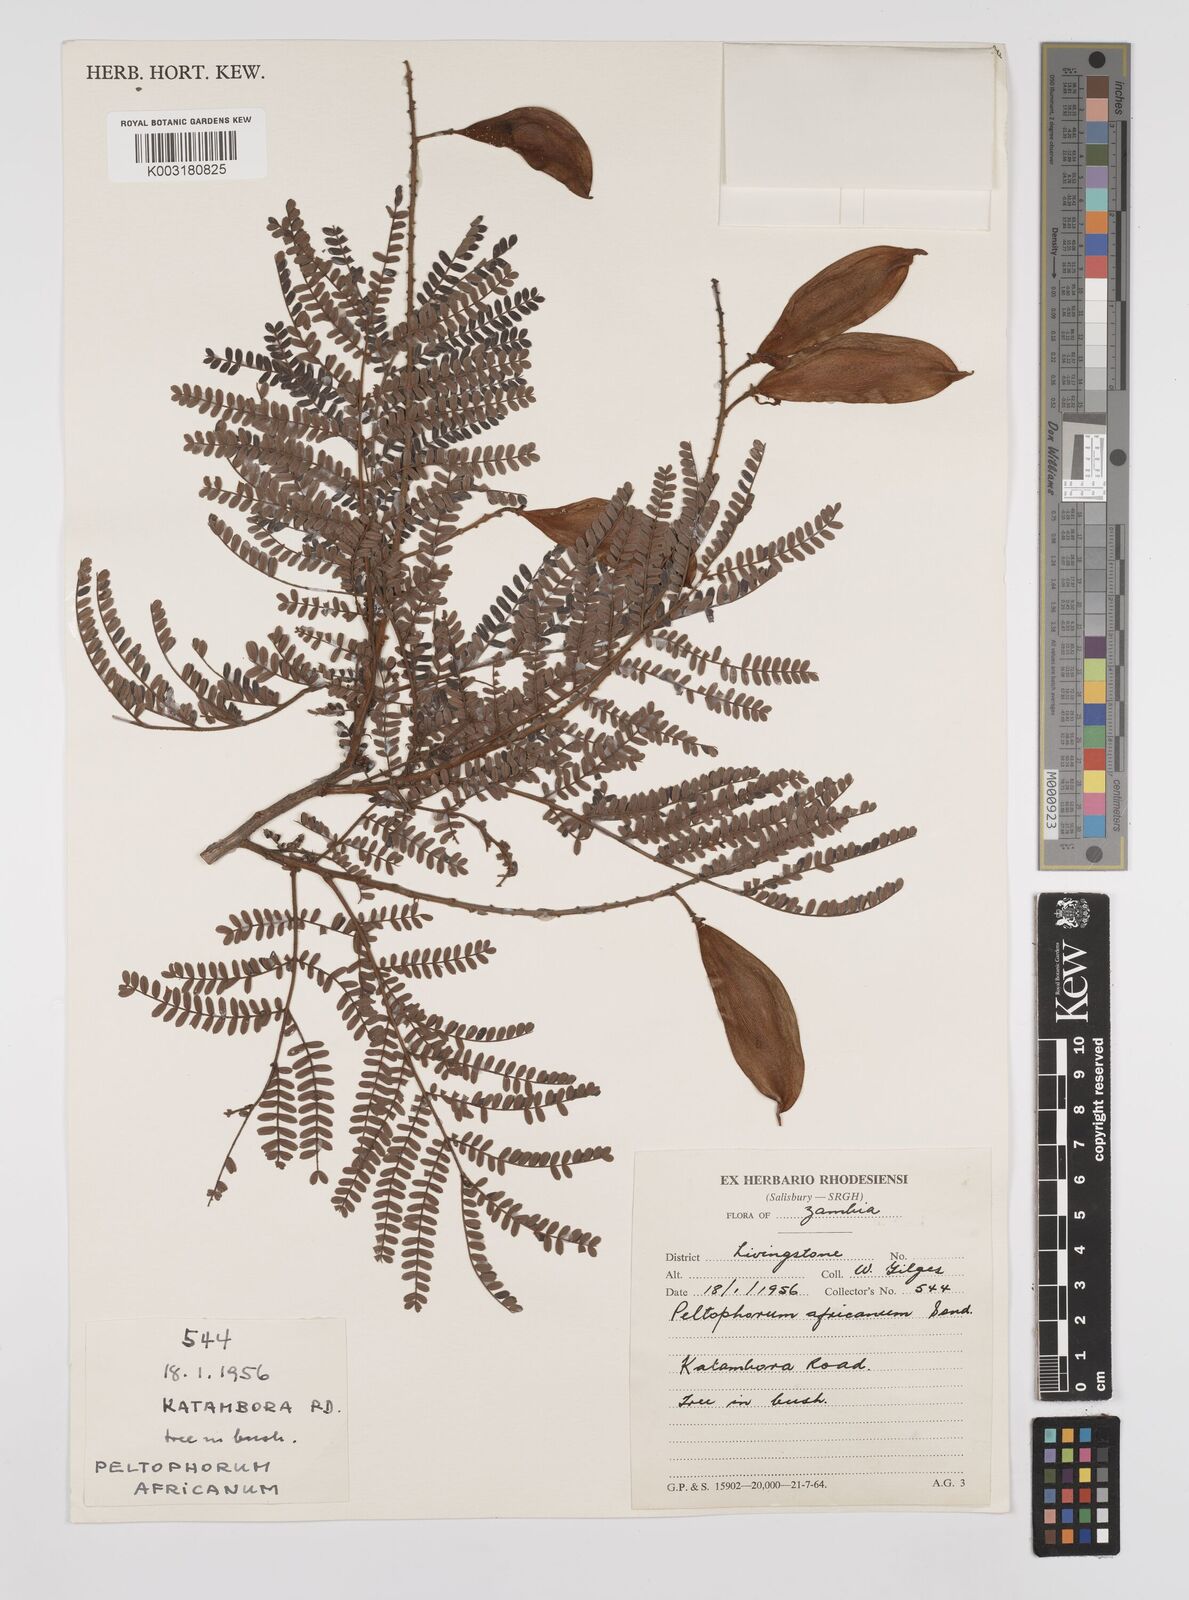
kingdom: Plantae
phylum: Tracheophyta
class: Magnoliopsida
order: Fabales
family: Fabaceae
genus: Peltophorum
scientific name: Peltophorum africanum
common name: African black wattle
